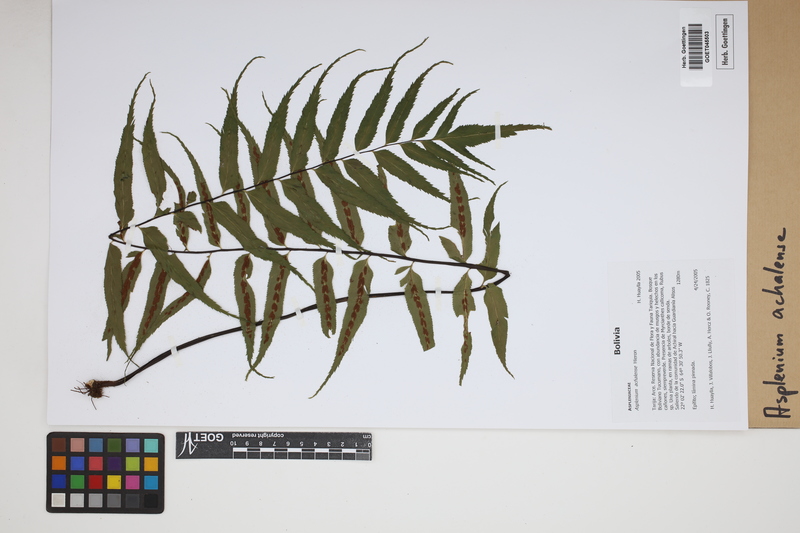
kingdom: Plantae
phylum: Tracheophyta
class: Polypodiopsida
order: Polypodiales
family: Aspleniaceae
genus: Asplenium
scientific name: Asplenium achalense
